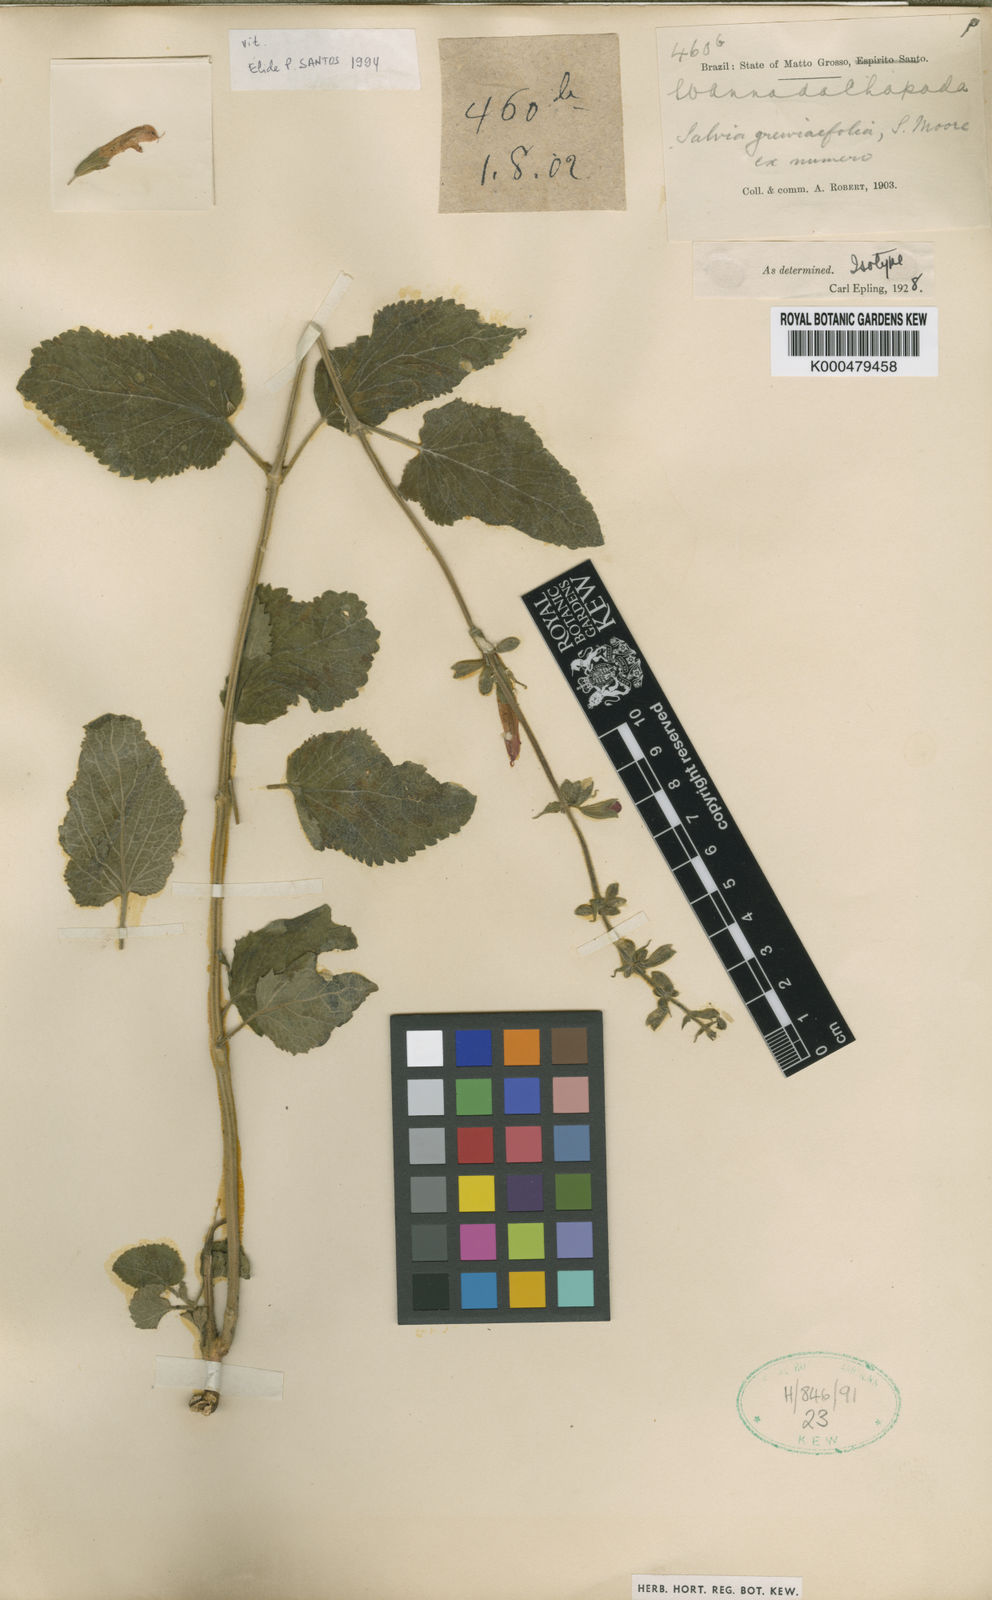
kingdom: Plantae
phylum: Tracheophyta
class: Magnoliopsida
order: Lamiales
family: Lamiaceae
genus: Salvia
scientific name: Salvia
